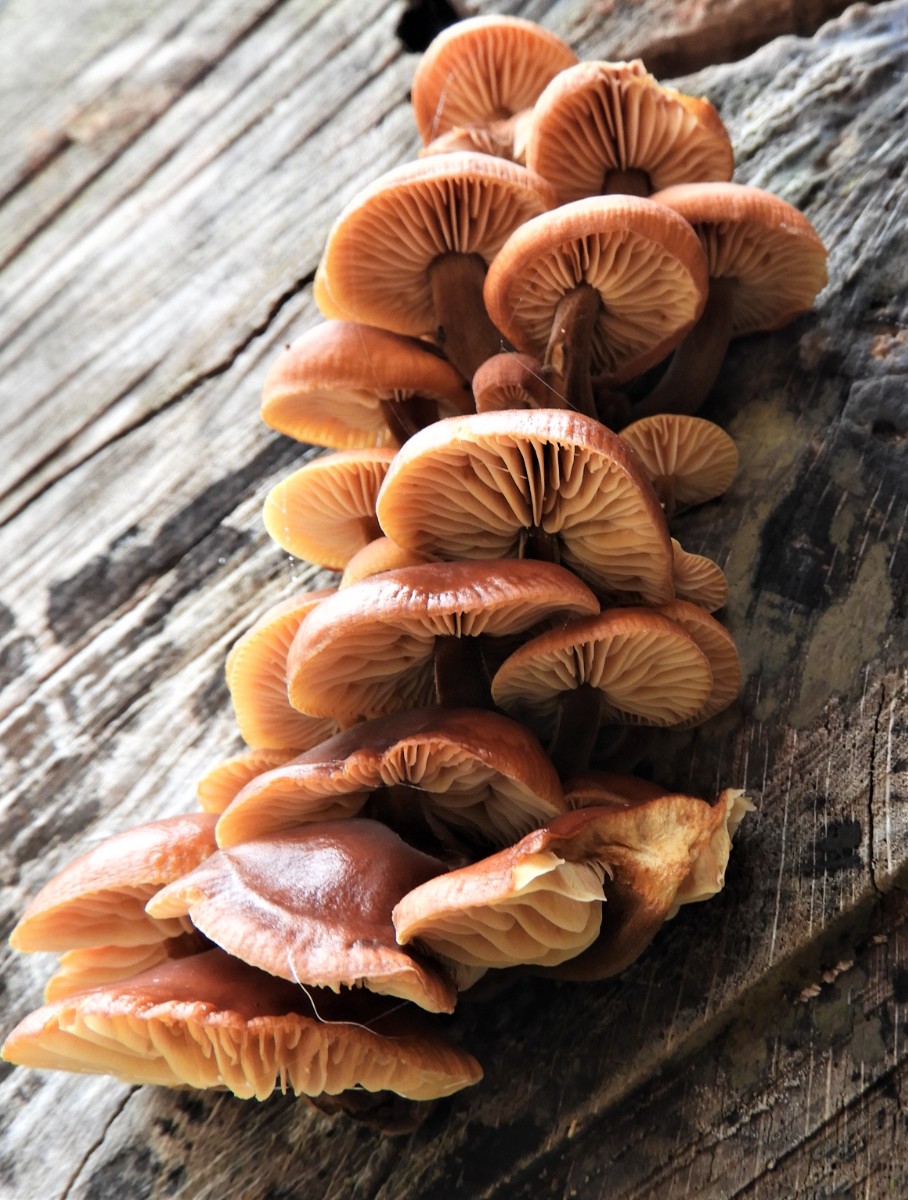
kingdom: Fungi
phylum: Basidiomycota
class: Agaricomycetes
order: Agaricales
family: Physalacriaceae
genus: Flammulina
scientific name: Flammulina velutipes
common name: gul fløjlsfod
